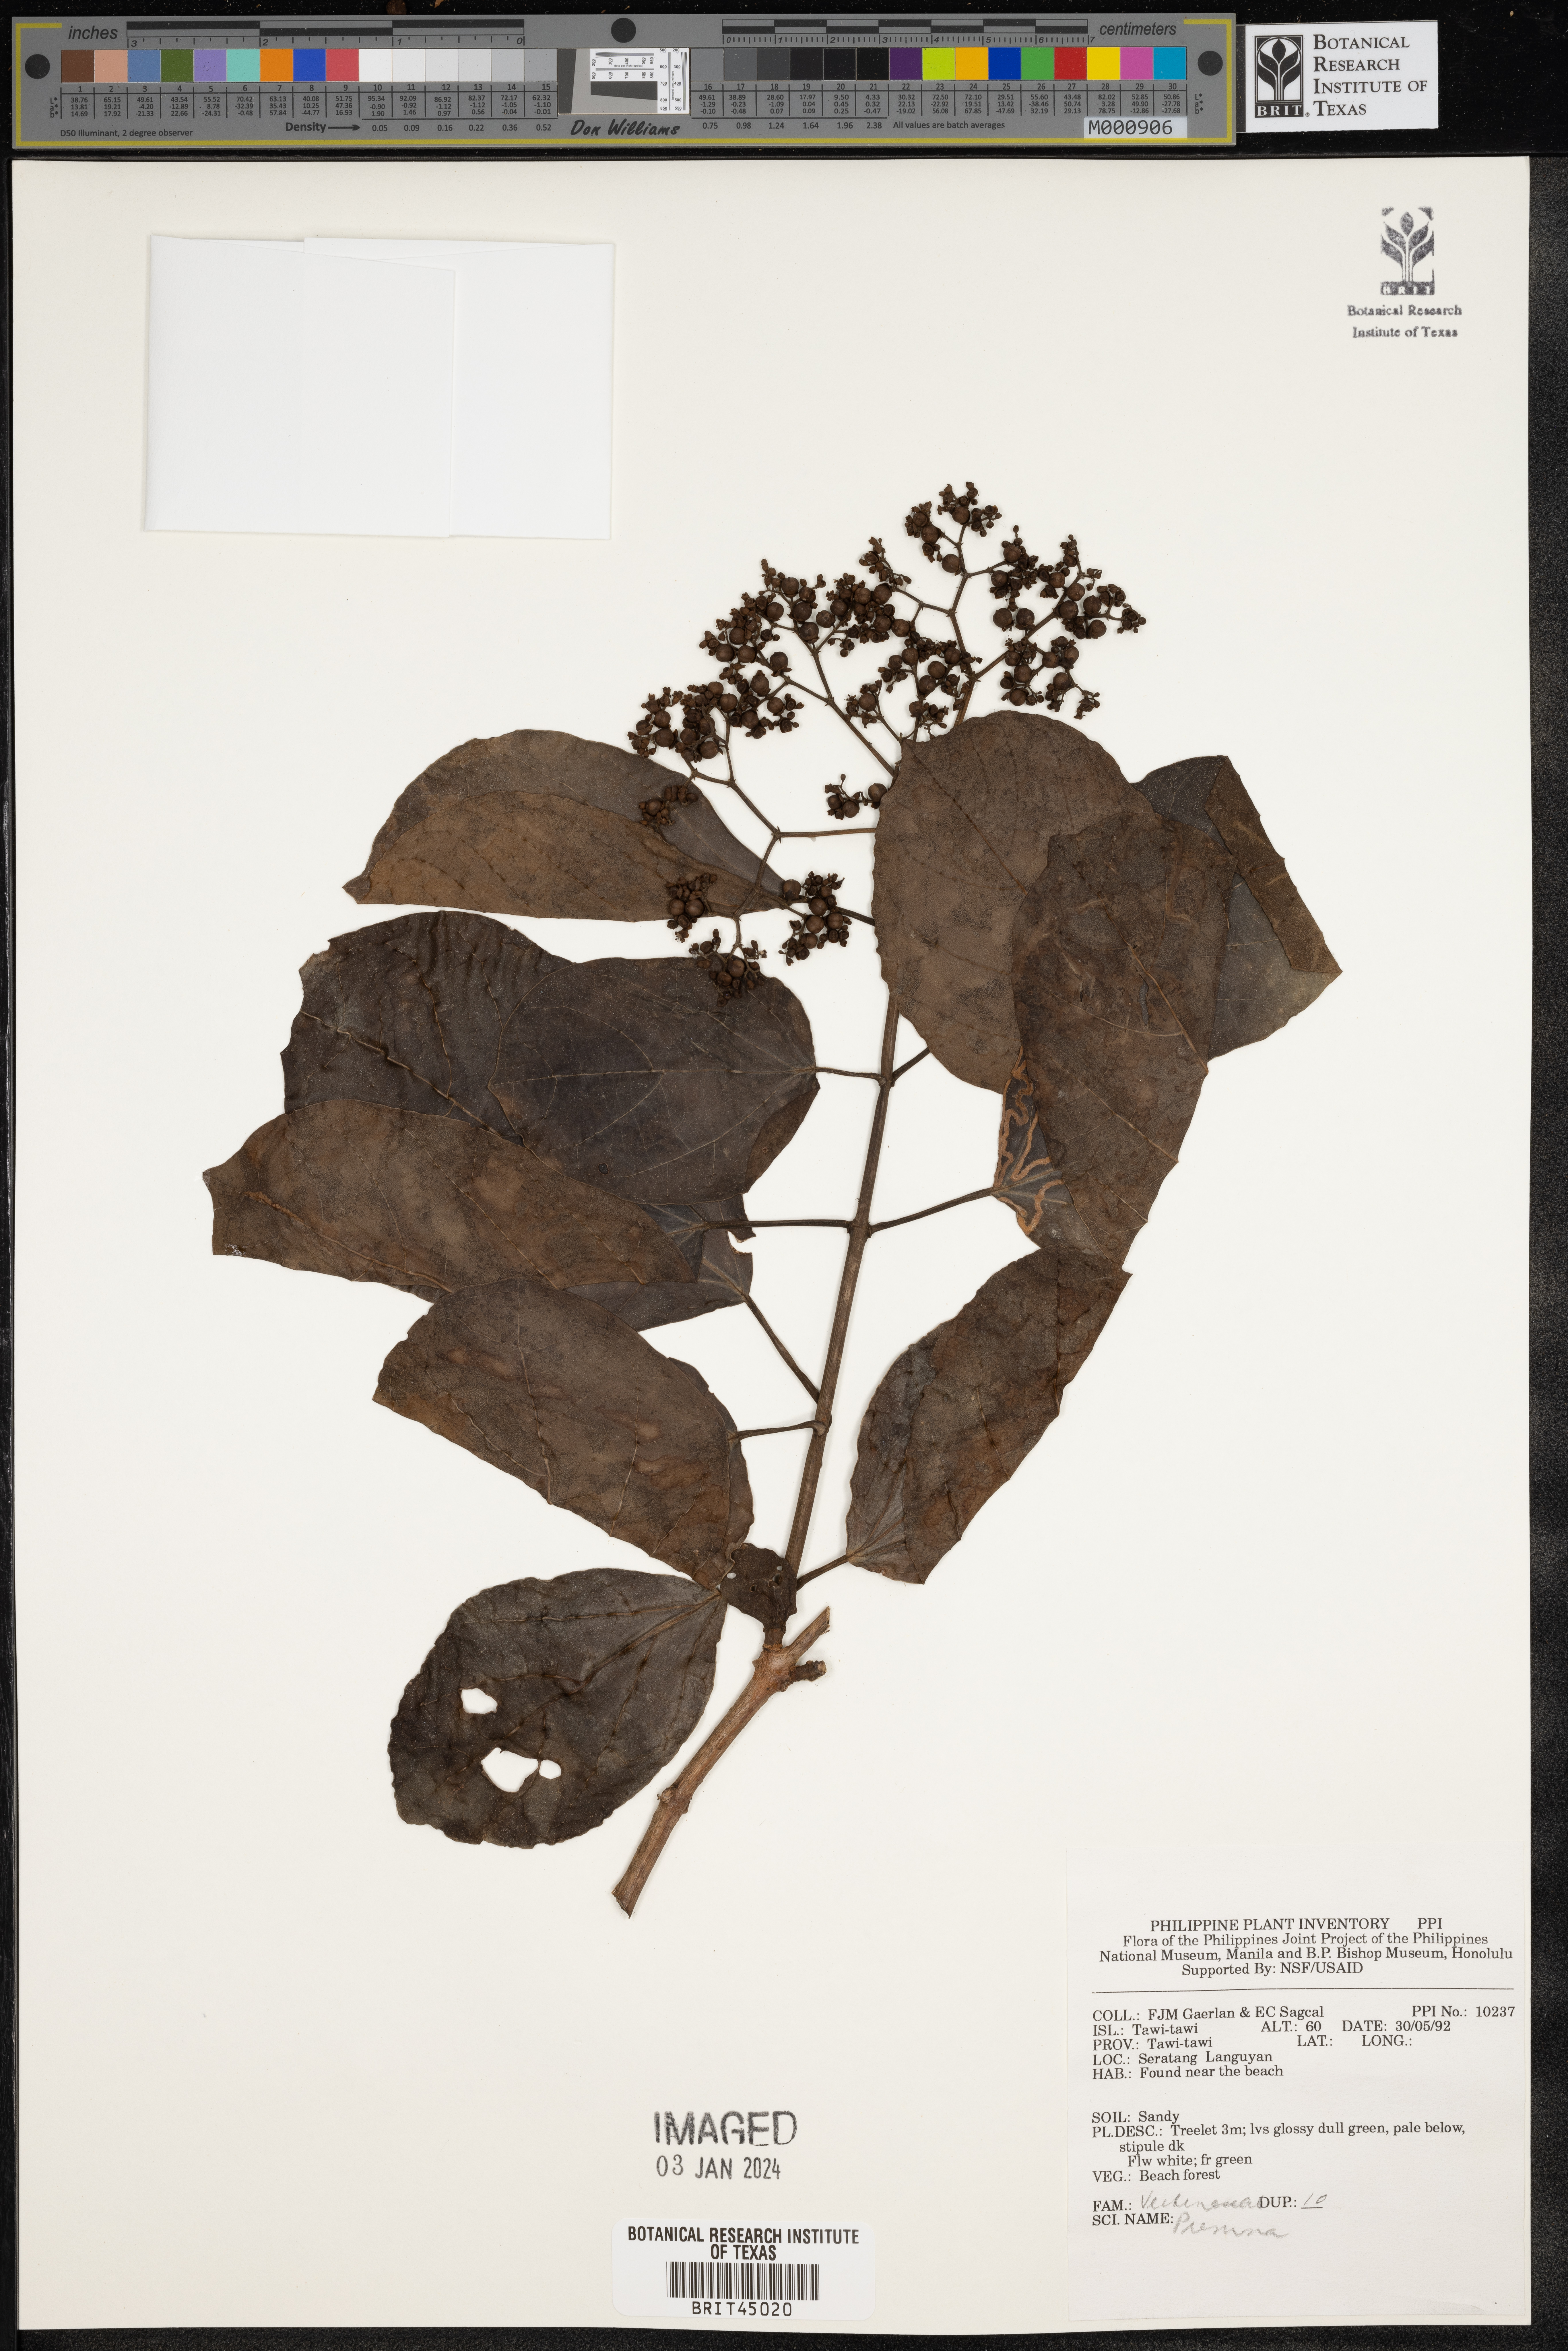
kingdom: Plantae
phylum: Tracheophyta
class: Magnoliopsida
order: Lamiales
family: Lamiaceae
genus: Premna
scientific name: Premna
